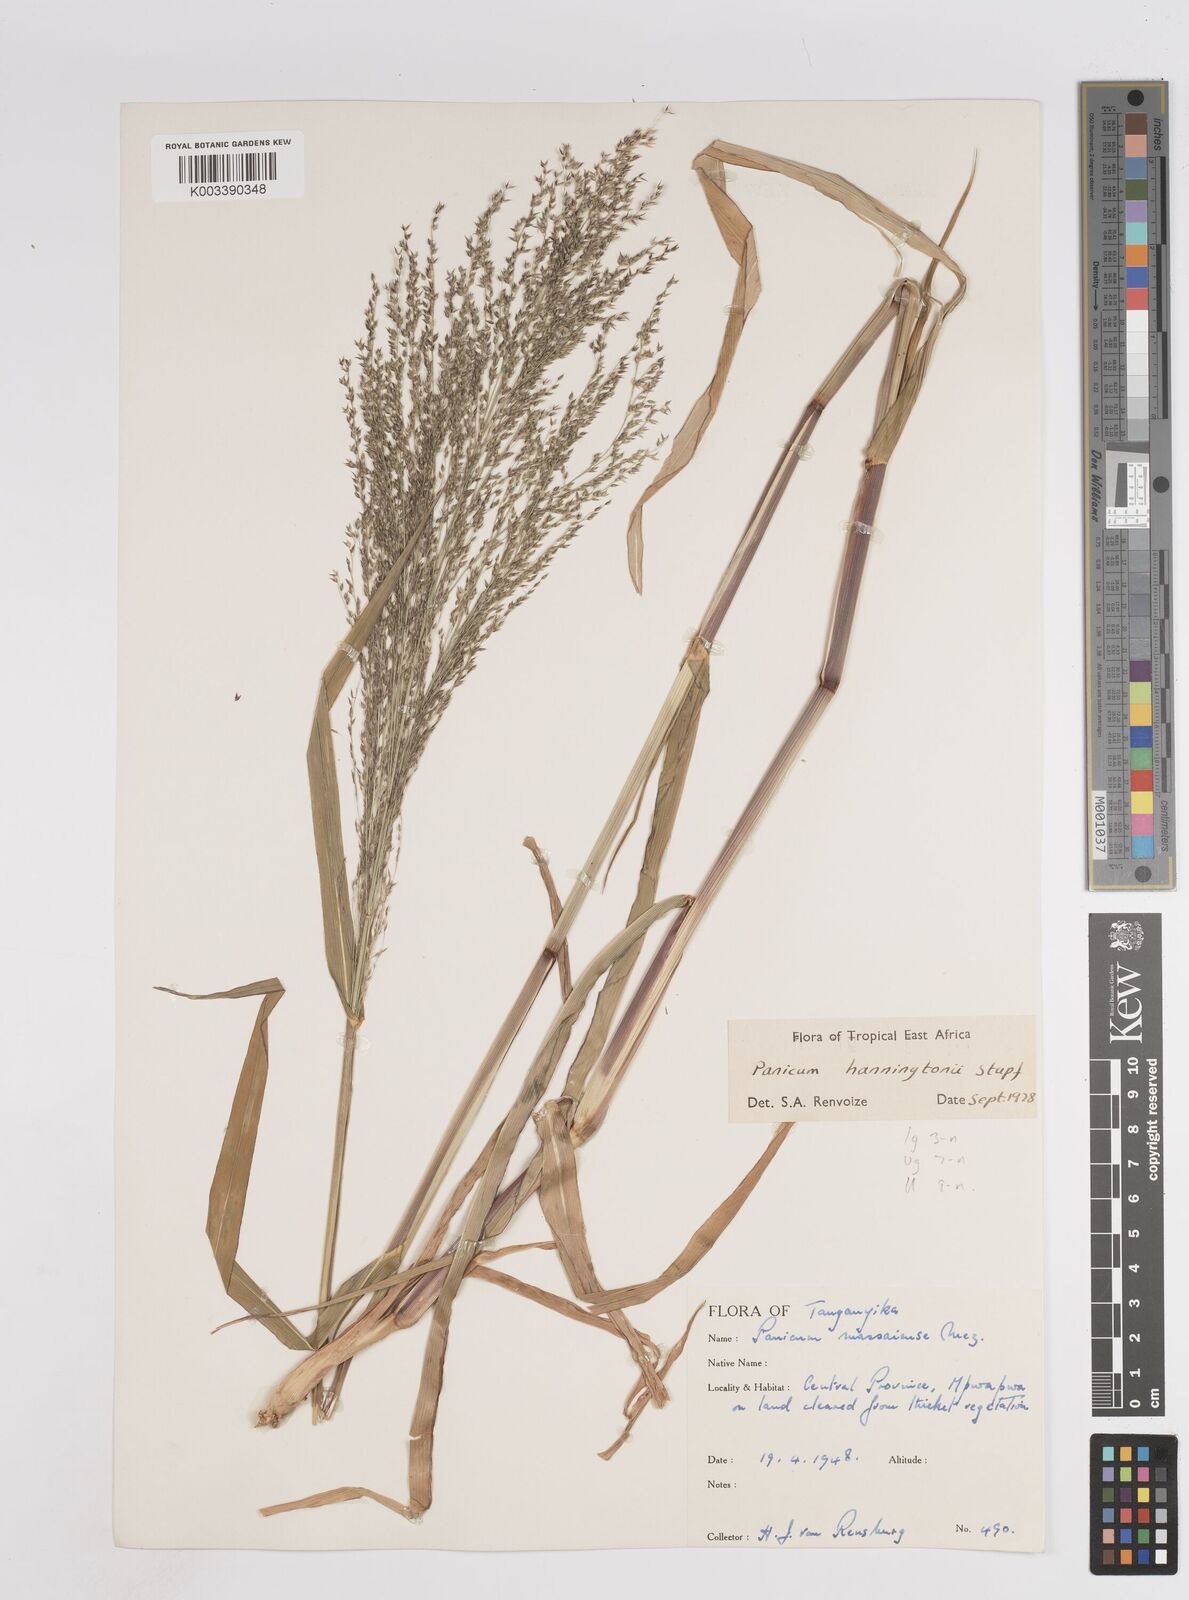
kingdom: Plantae
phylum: Tracheophyta
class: Liliopsida
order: Poales
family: Poaceae
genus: Panicum
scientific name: Panicum hanningtonii
